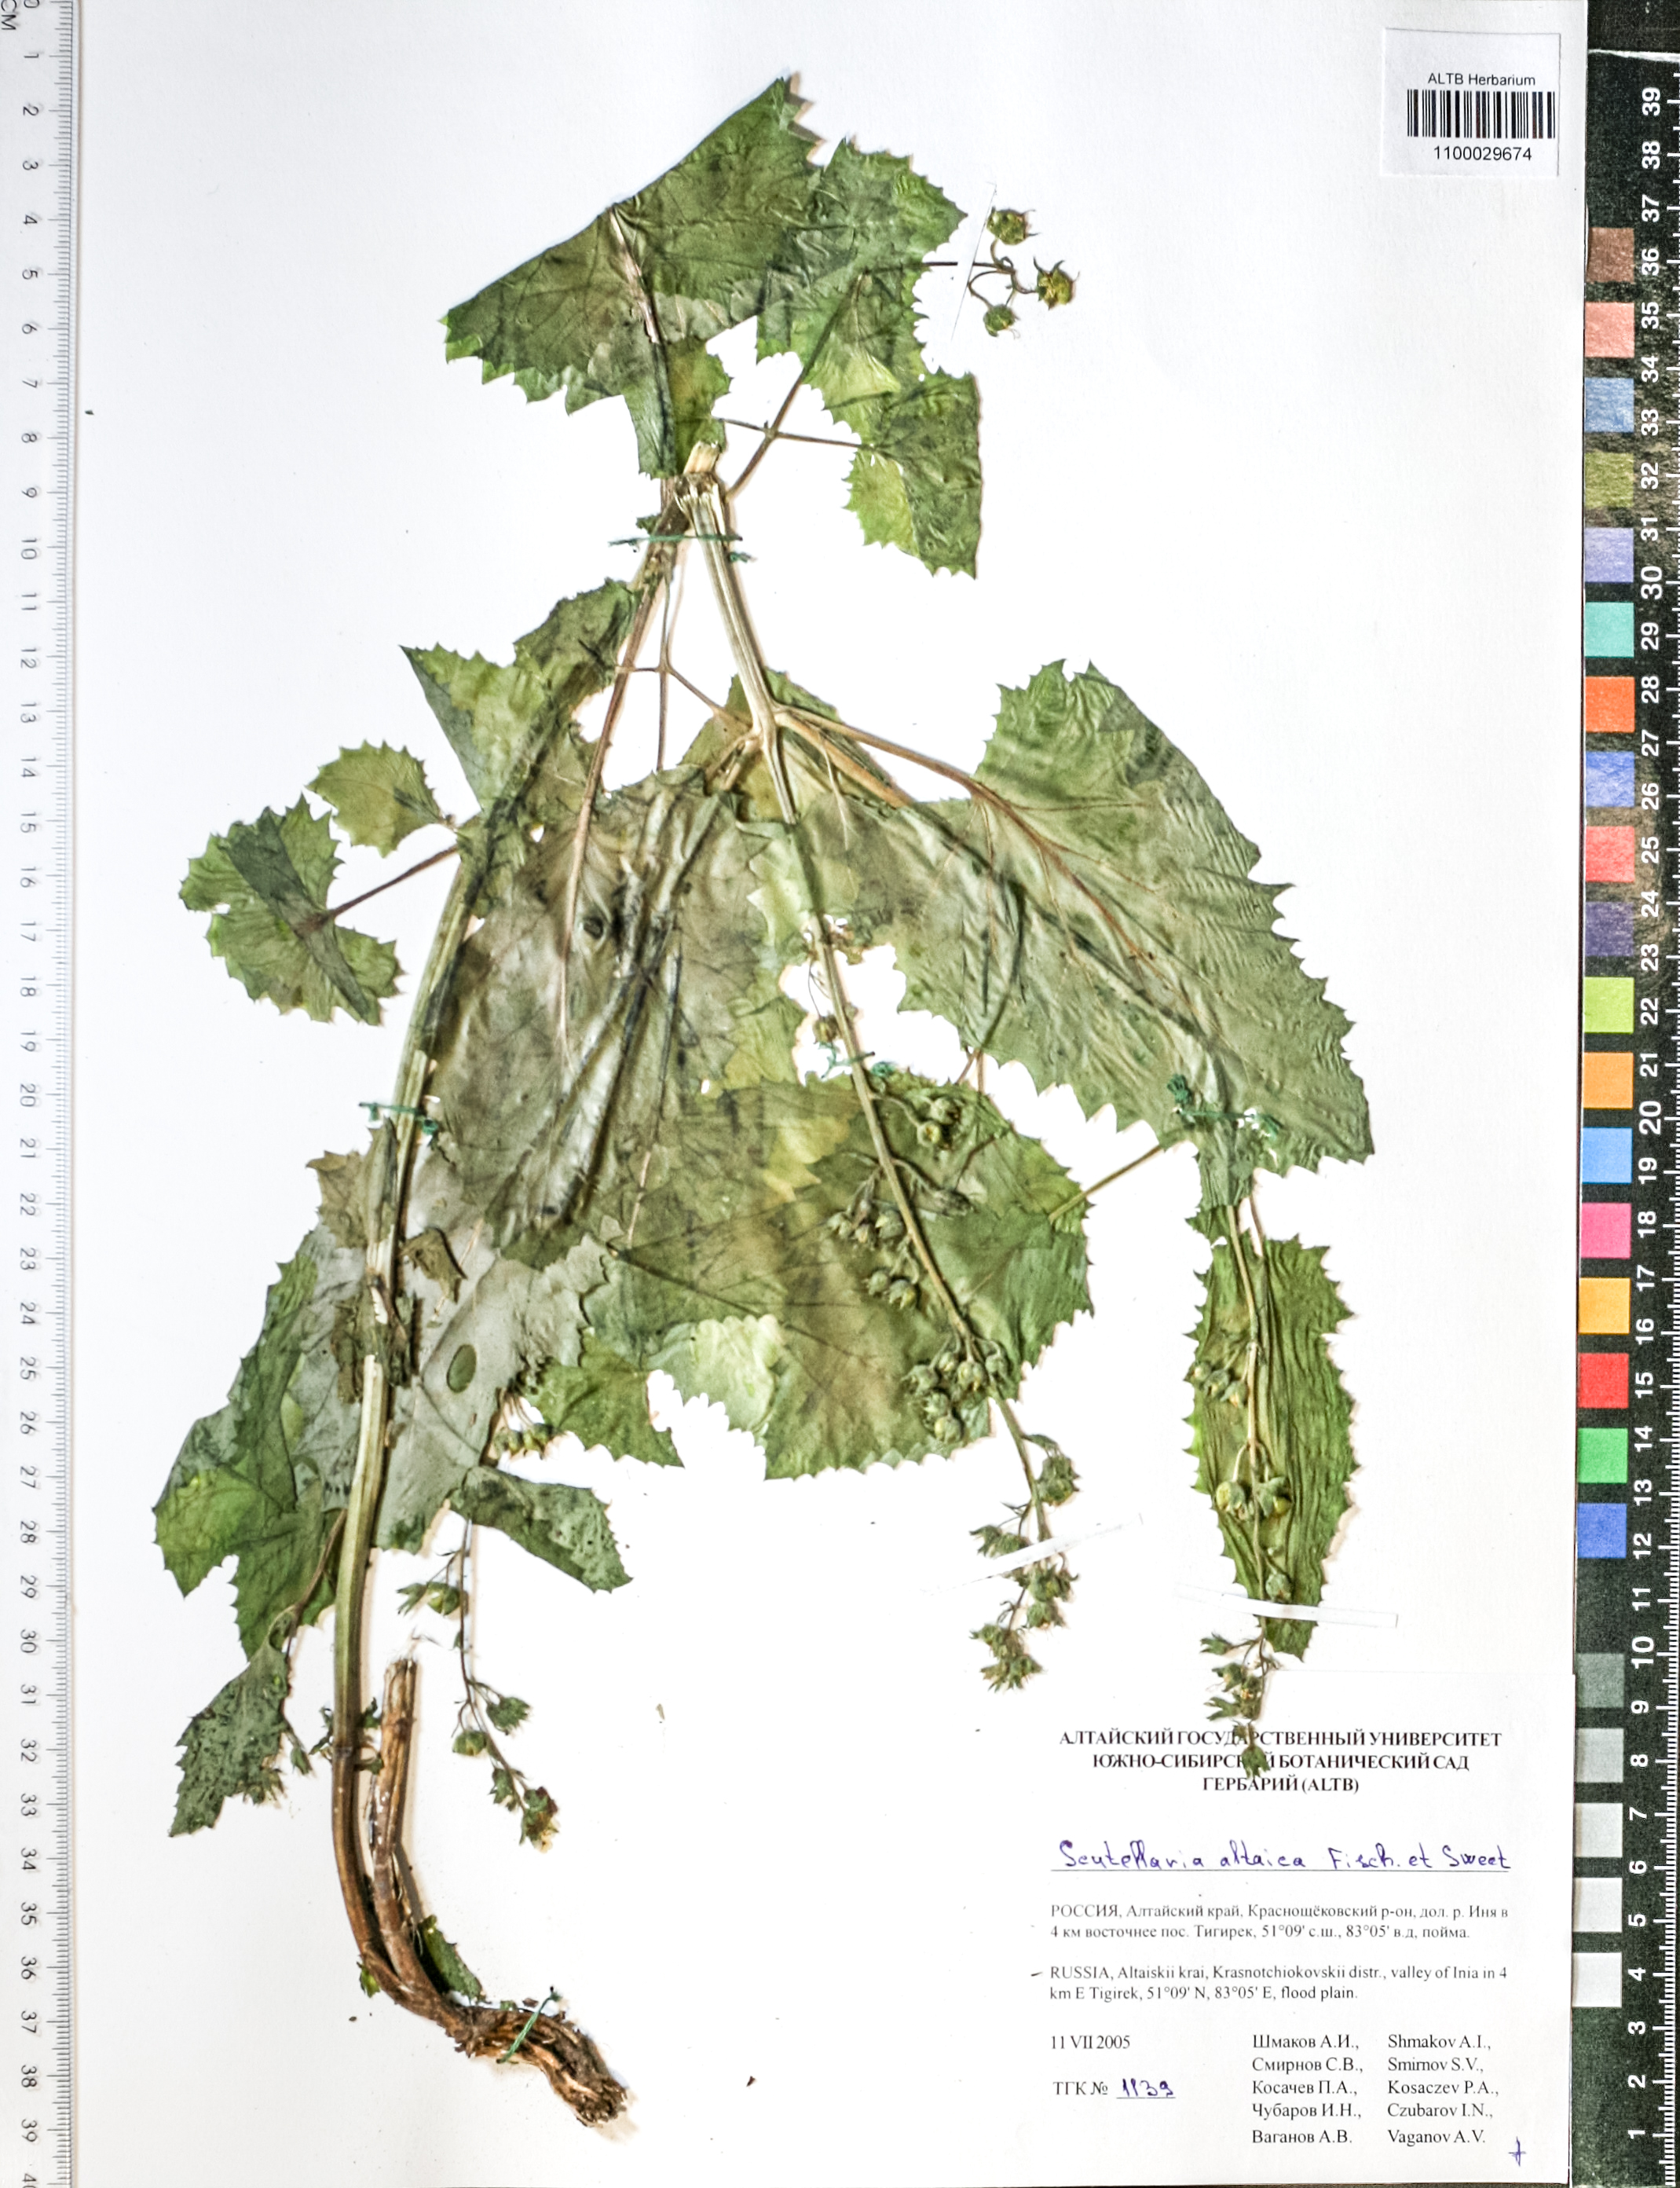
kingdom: Plantae
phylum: Tracheophyta
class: Magnoliopsida
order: Lamiales
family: Scrophulariaceae
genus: Scrophularia
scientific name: Scrophularia altaica
